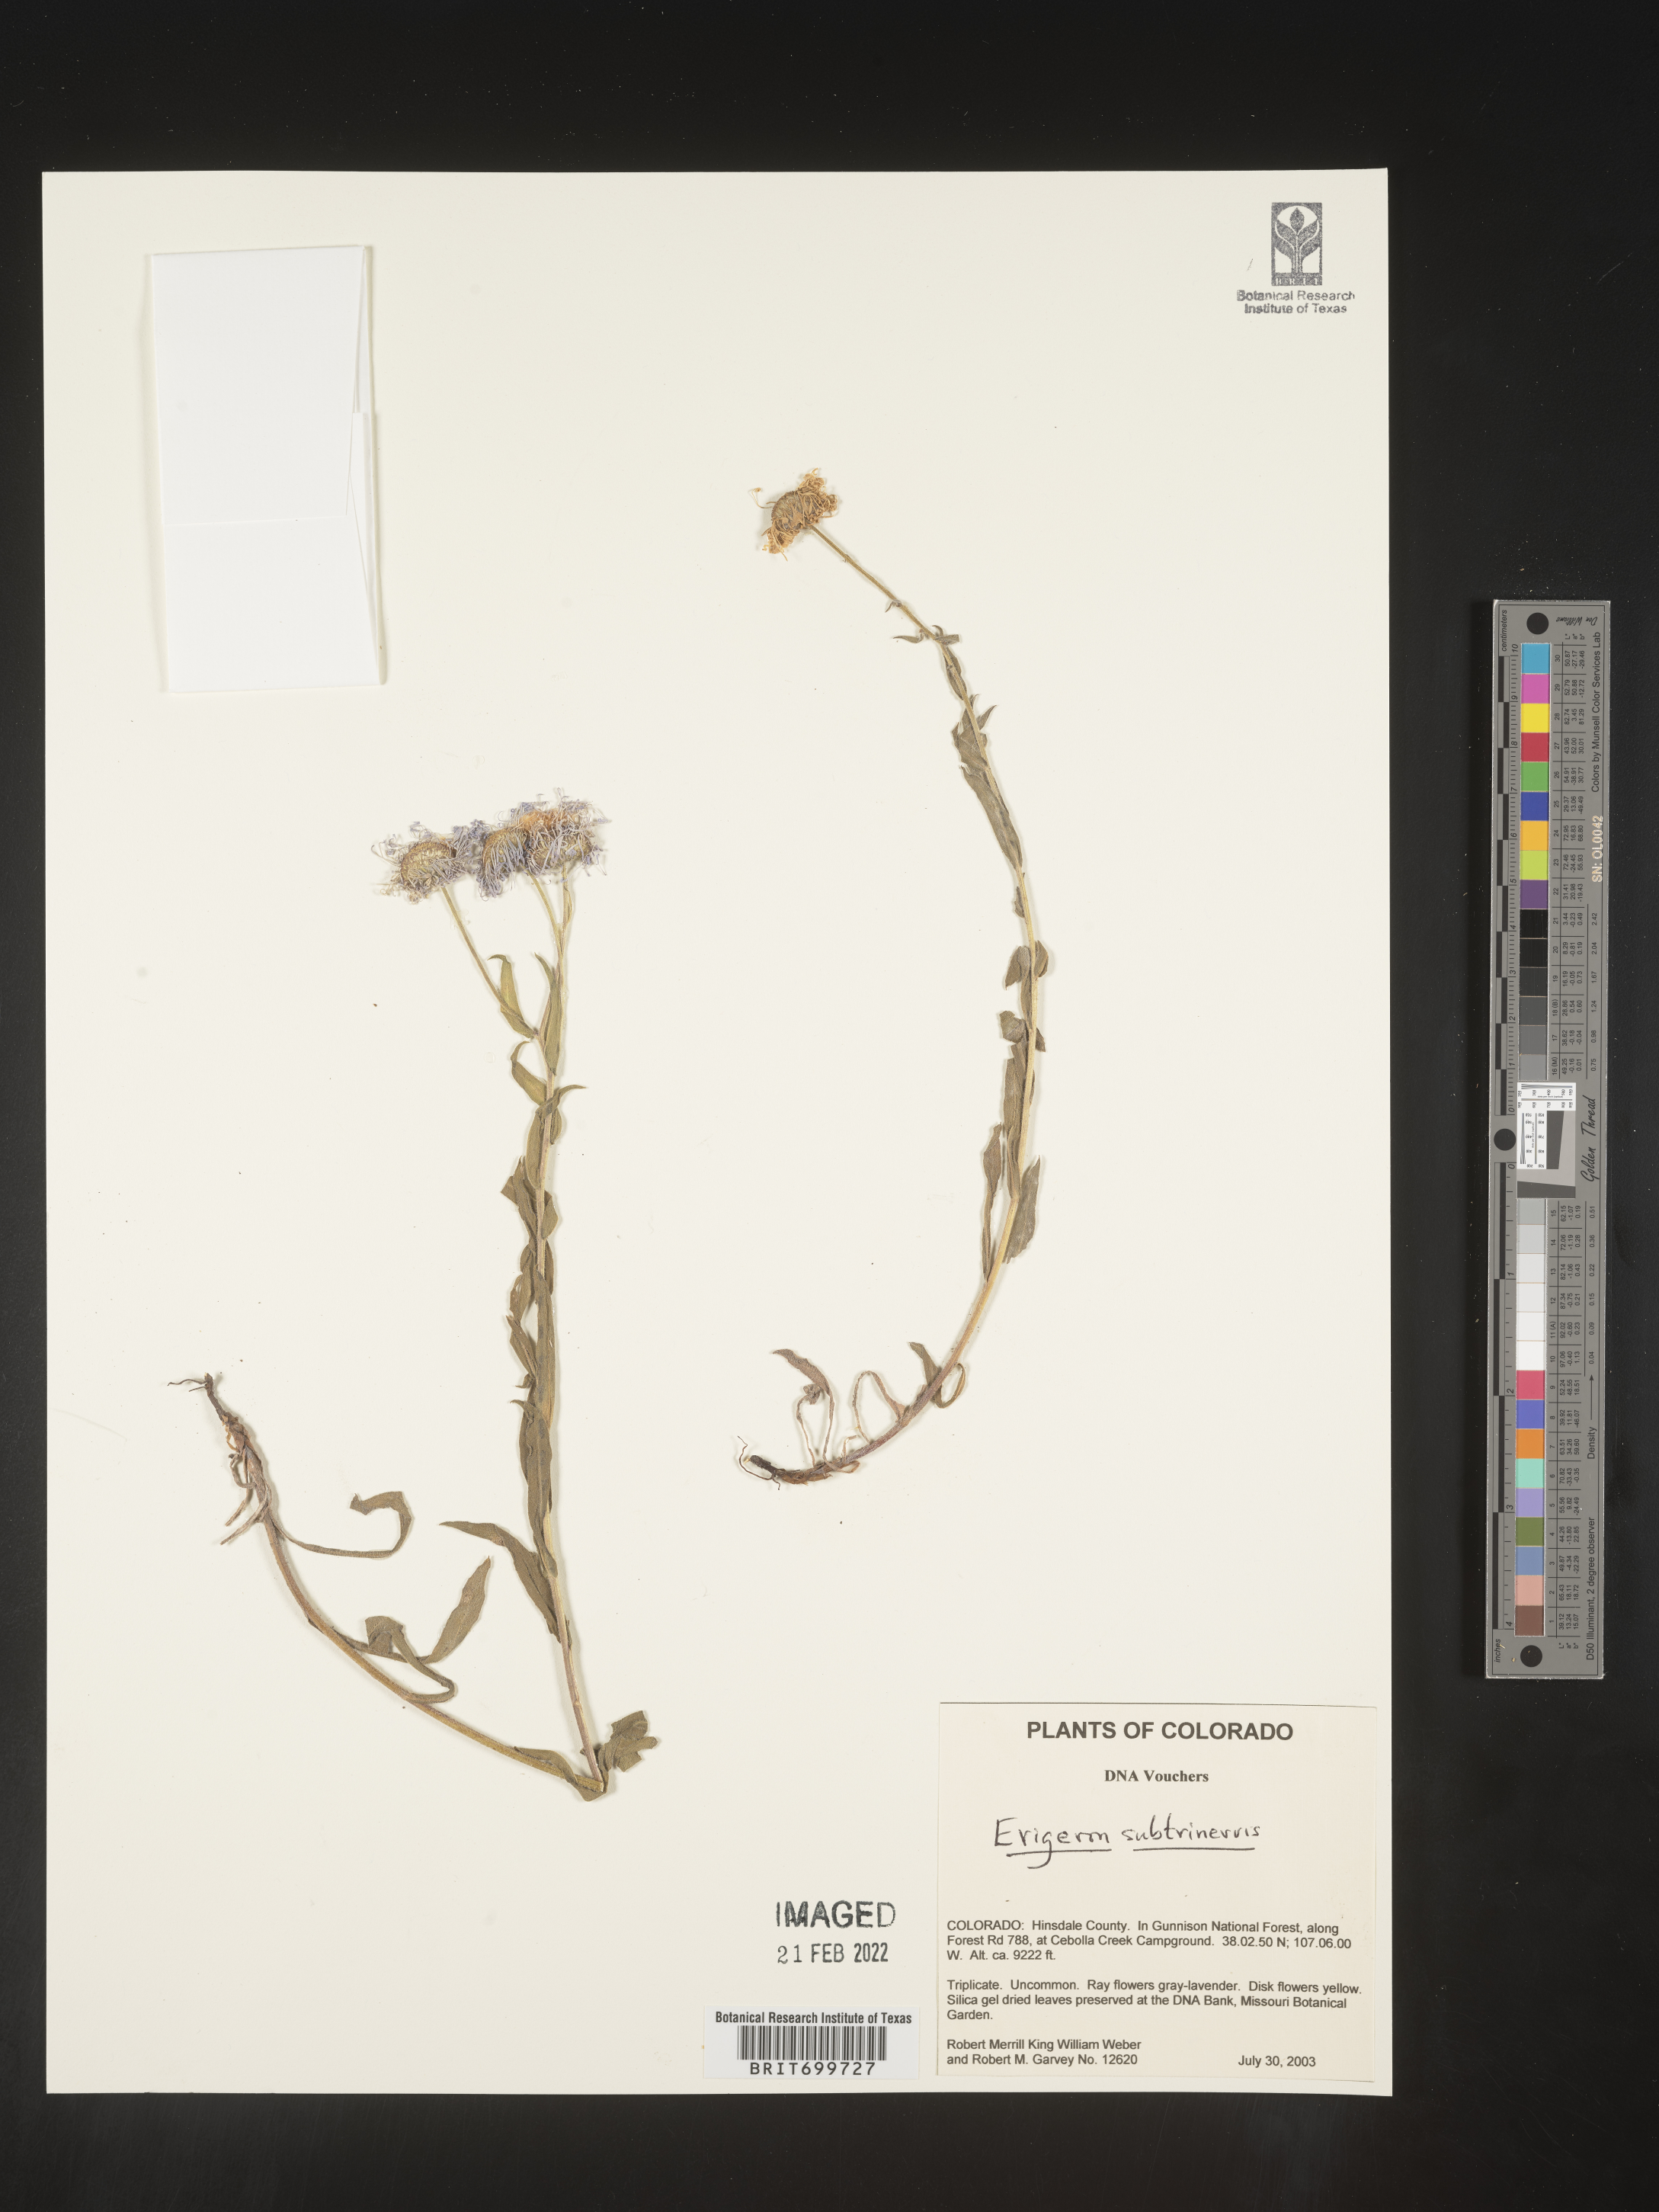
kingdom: Plantae
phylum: Tracheophyta
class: Magnoliopsida
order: Asterales
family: Asteraceae
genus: Erigeron
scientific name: Erigeron subtrinervis
